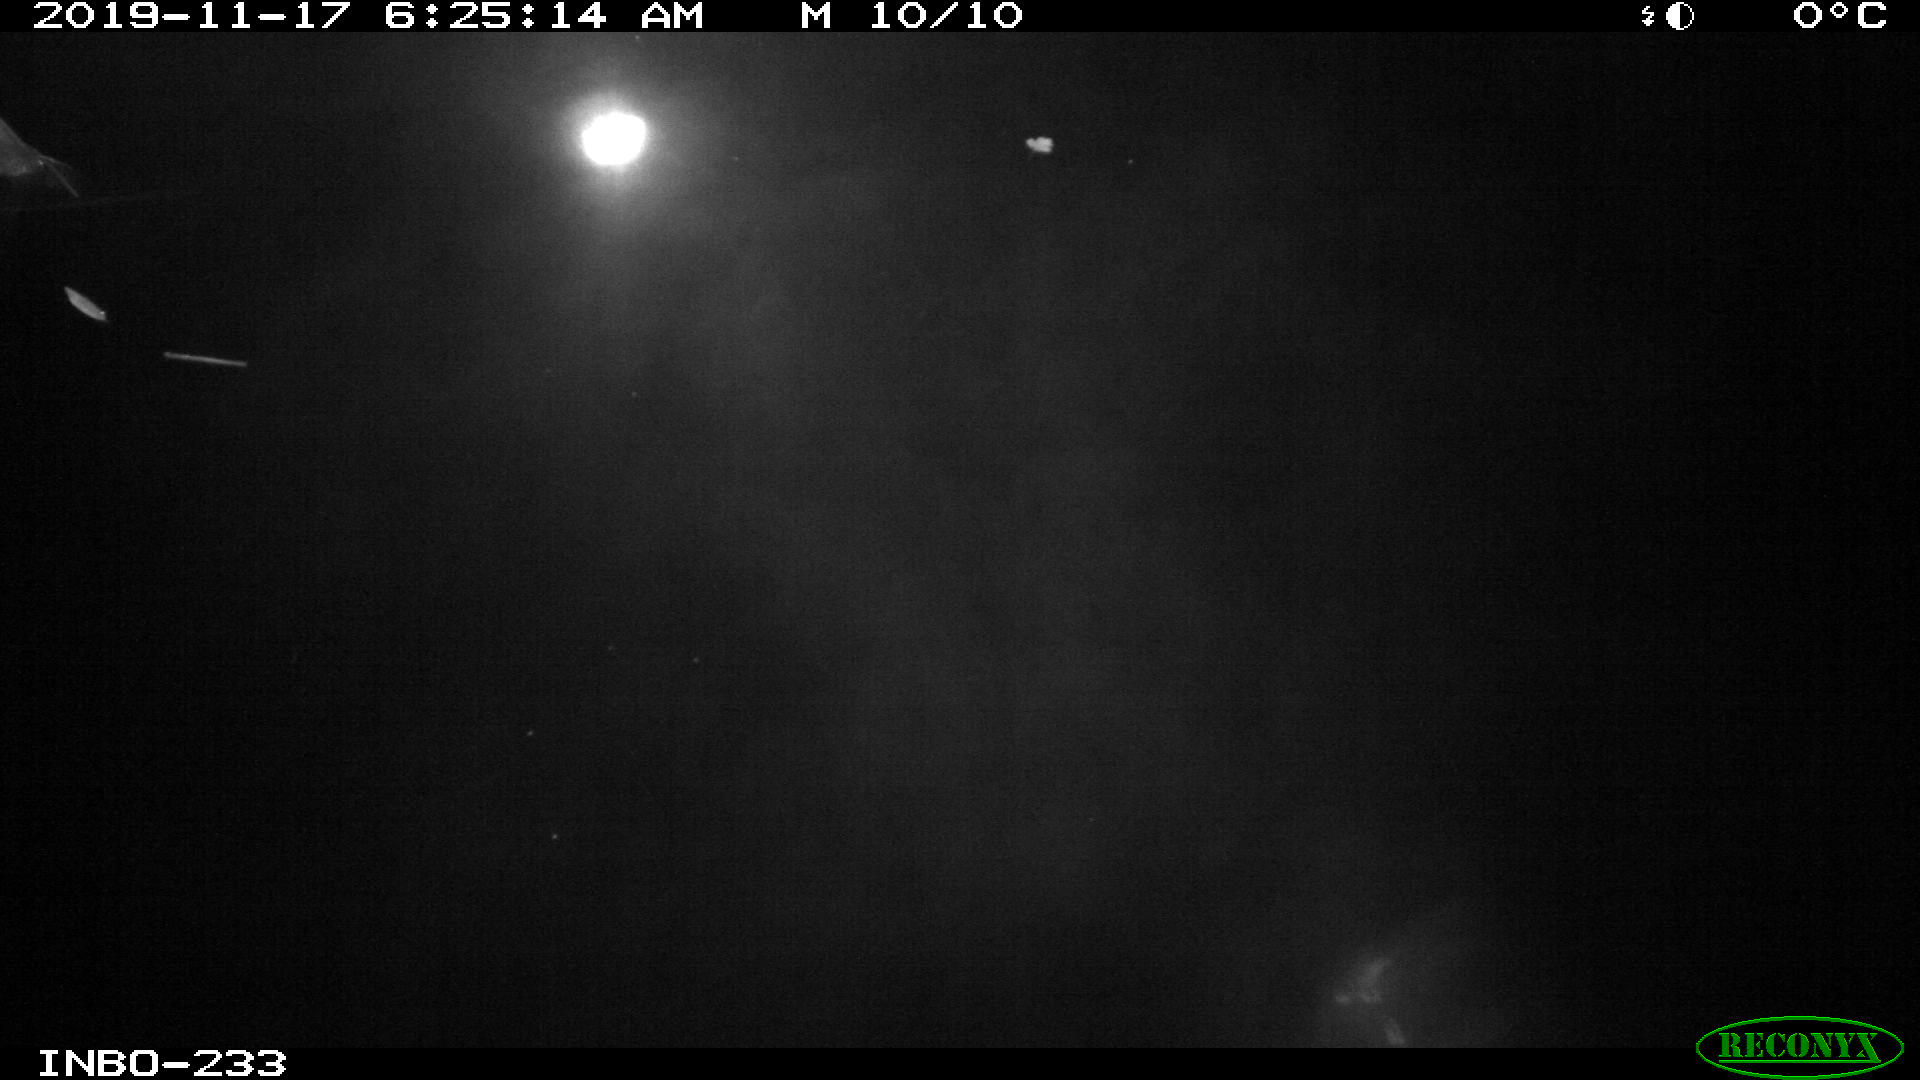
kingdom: Animalia
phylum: Chordata
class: Aves
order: Anseriformes
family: Anatidae
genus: Anas
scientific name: Anas platyrhynchos
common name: Mallard
